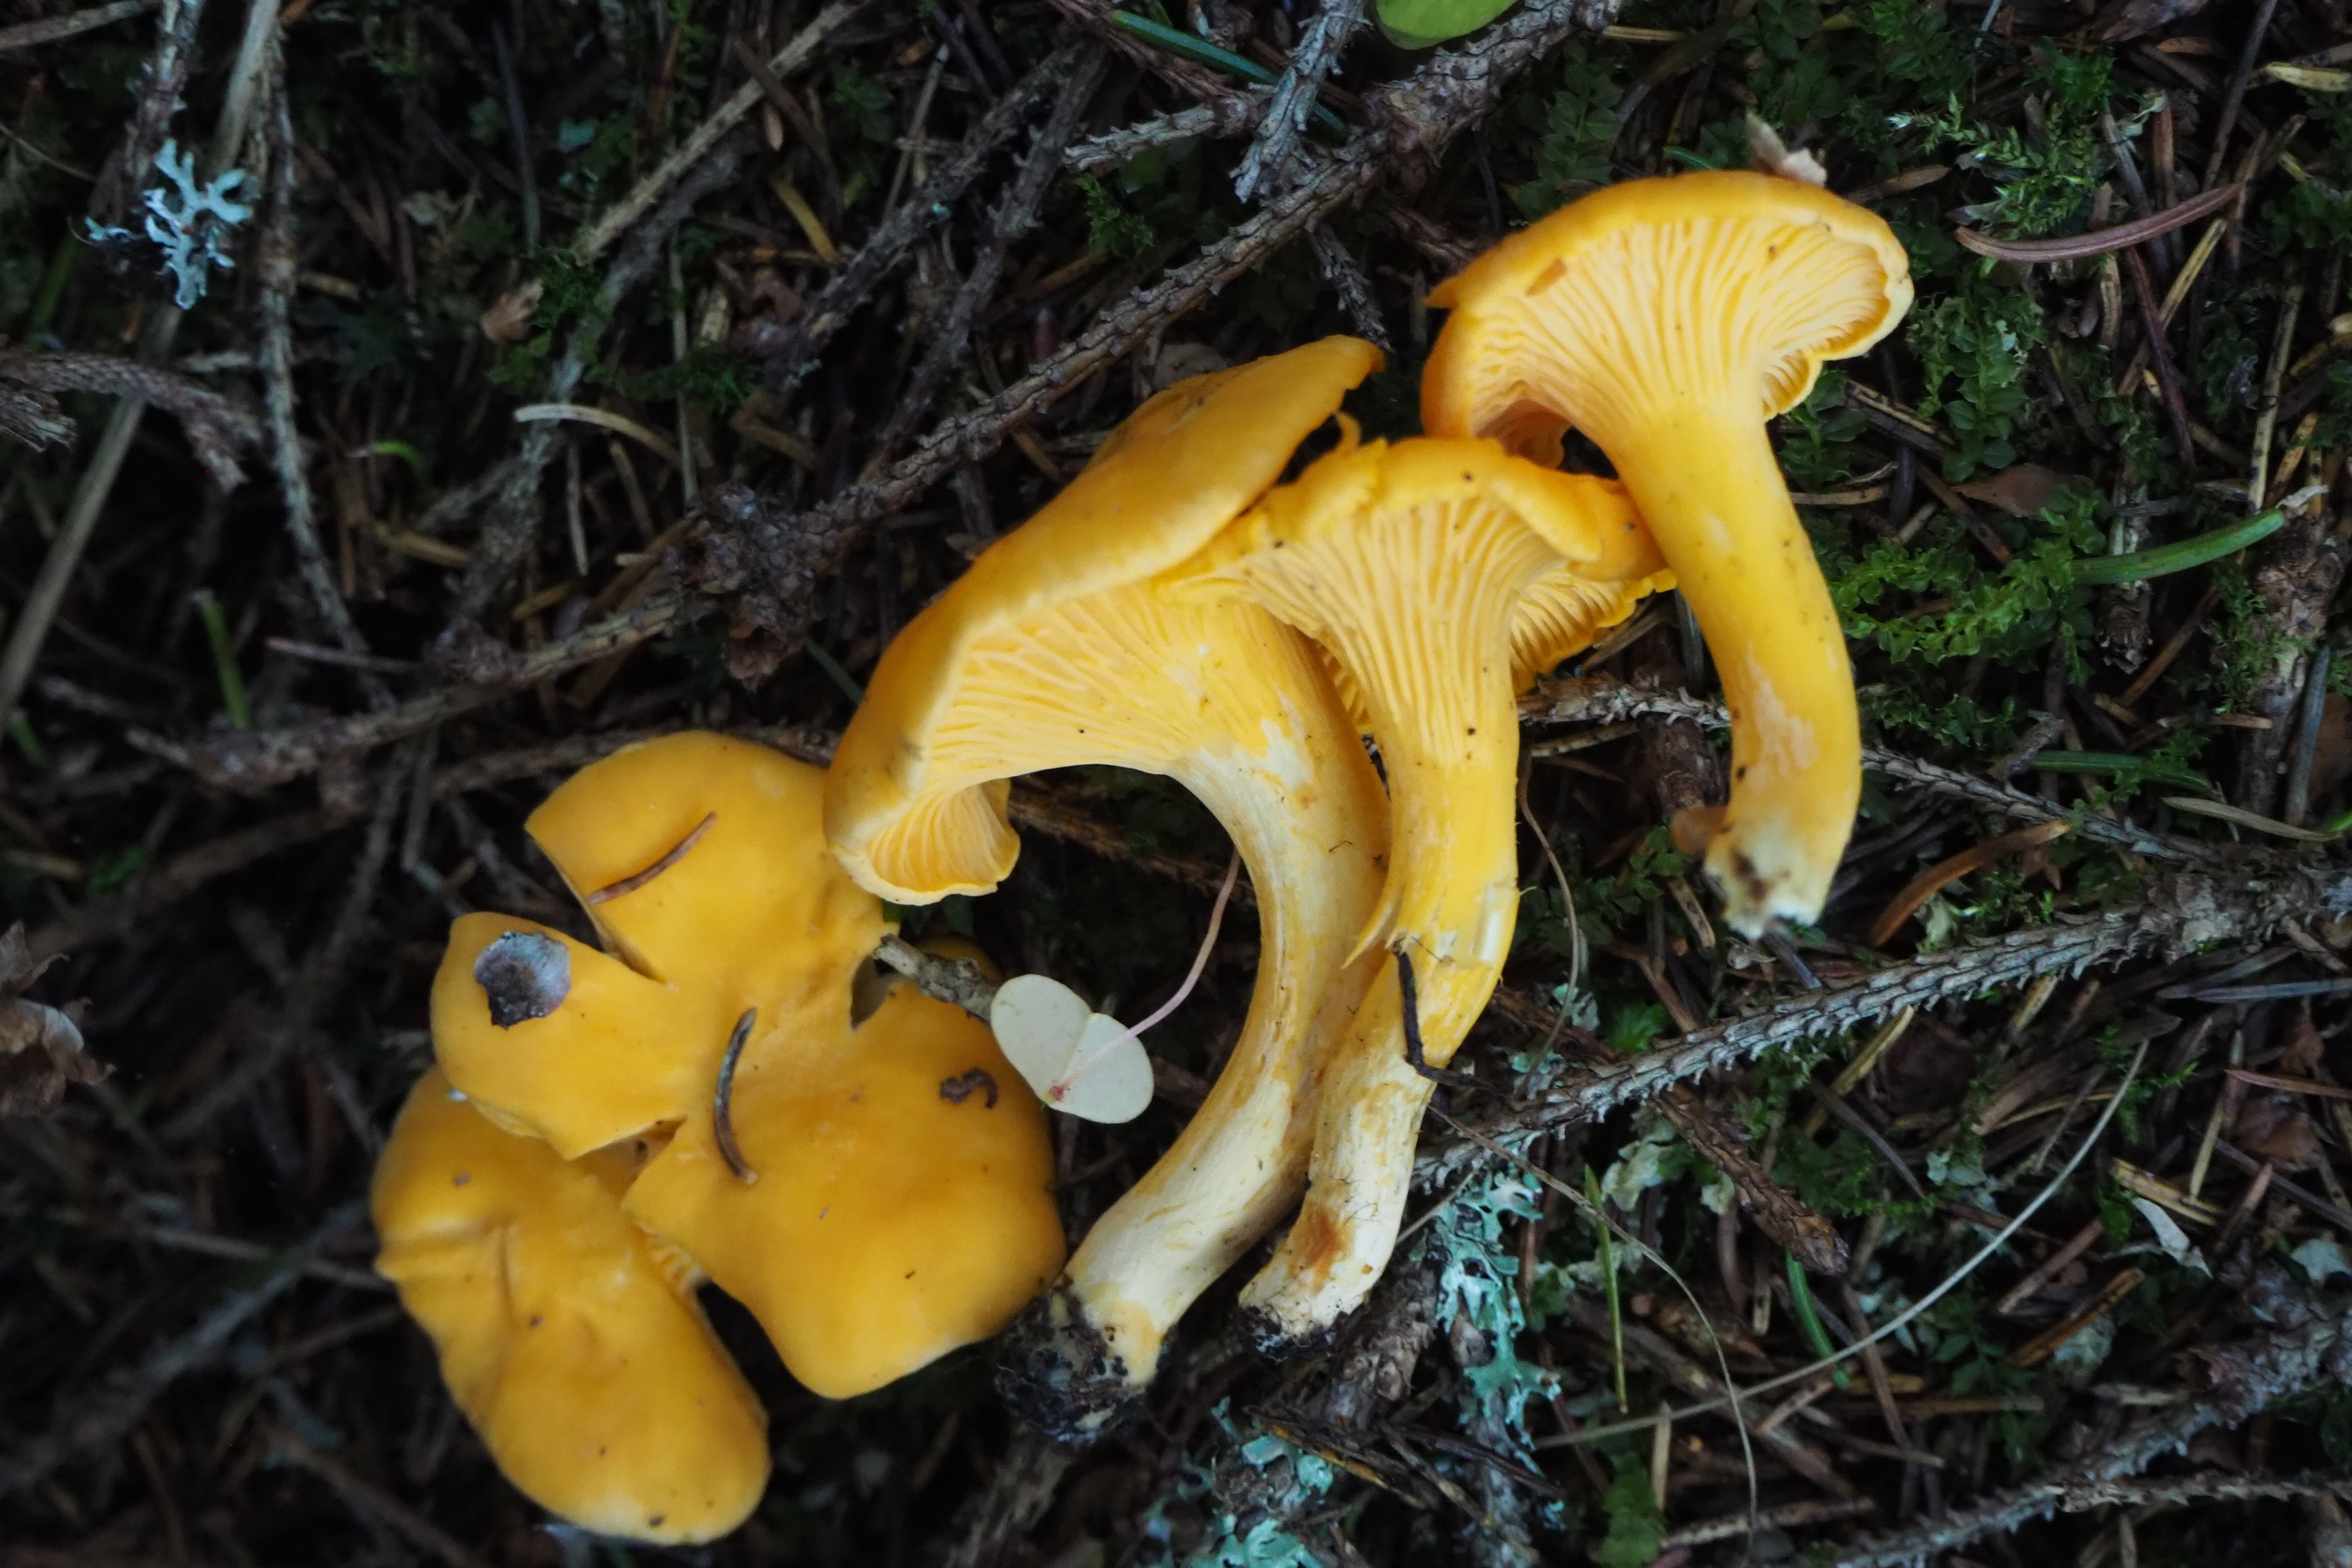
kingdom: Fungi
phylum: Basidiomycota
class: Agaricomycetes
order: Cantharellales
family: Hydnaceae
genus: Cantharellus
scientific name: Cantharellus cibarius
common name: Chanterelle
